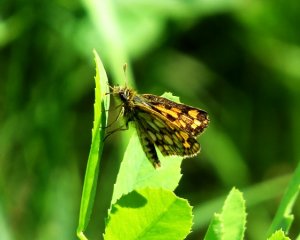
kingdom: Animalia
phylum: Arthropoda
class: Insecta
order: Lepidoptera
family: Hesperiidae
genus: Carterocephalus
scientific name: Carterocephalus palaemon
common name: Chequered Skipper
